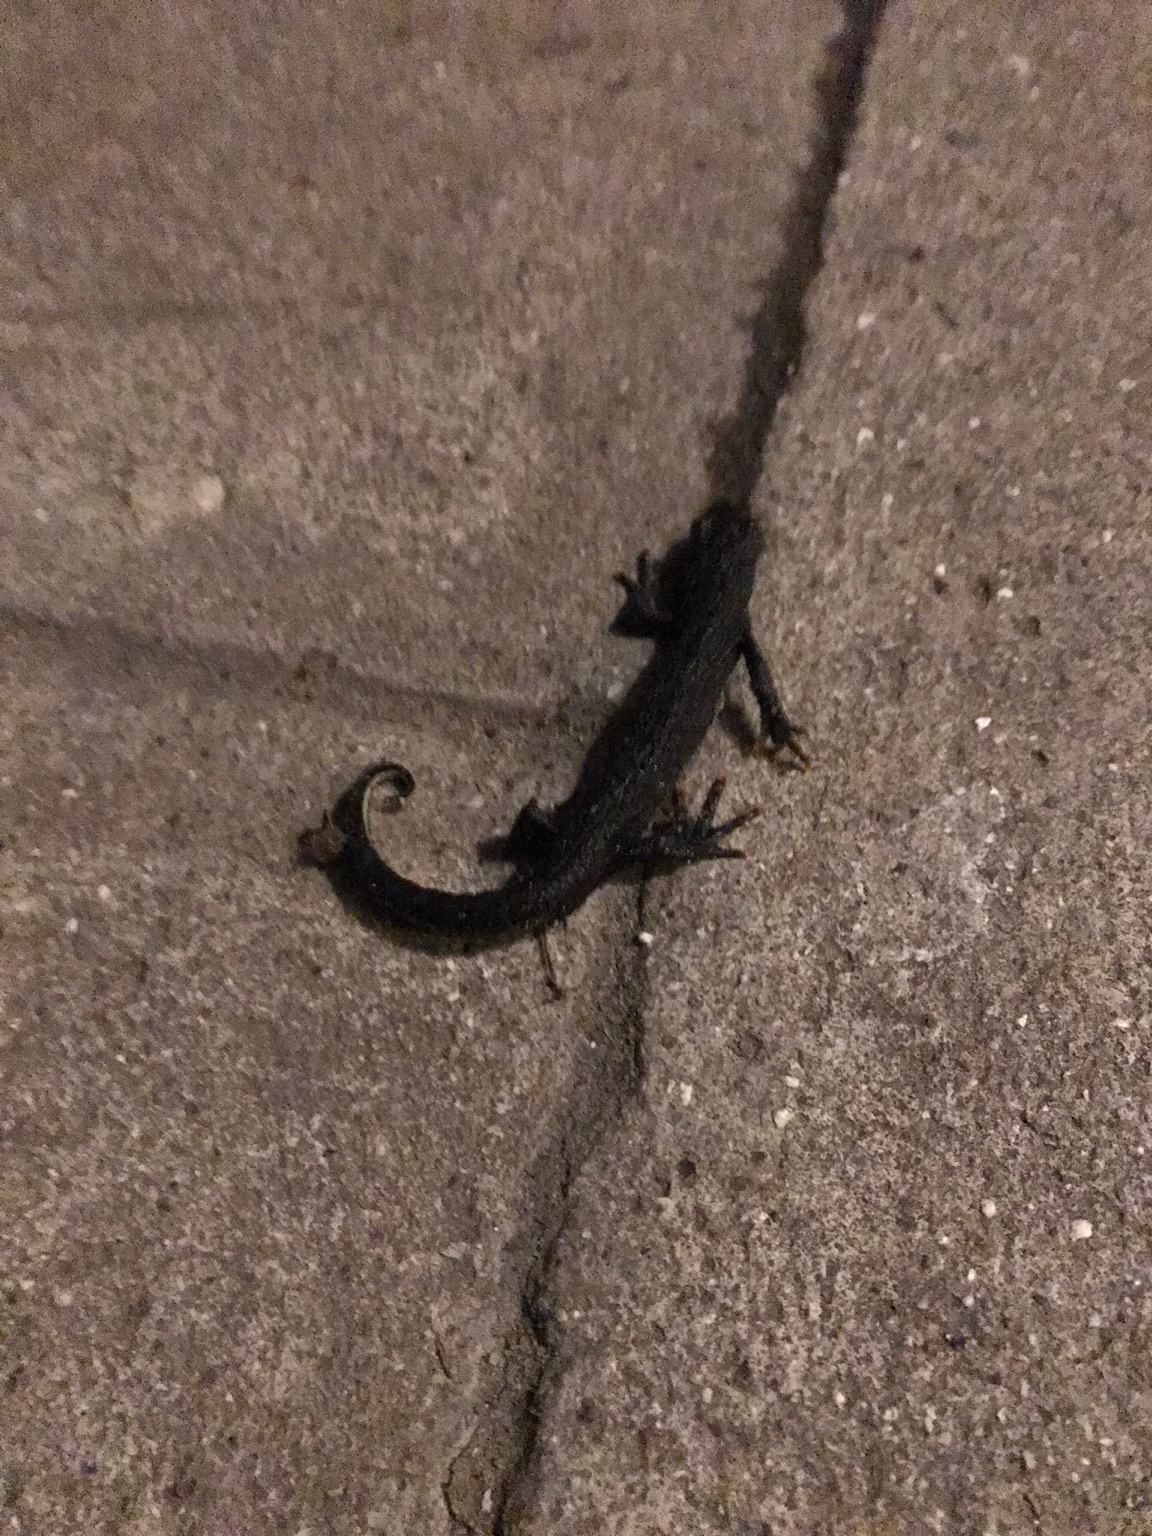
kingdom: Animalia
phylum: Chordata
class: Amphibia
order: Caudata
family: Salamandridae
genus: Triturus
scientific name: Triturus cristatus
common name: Stor vandsalamander
